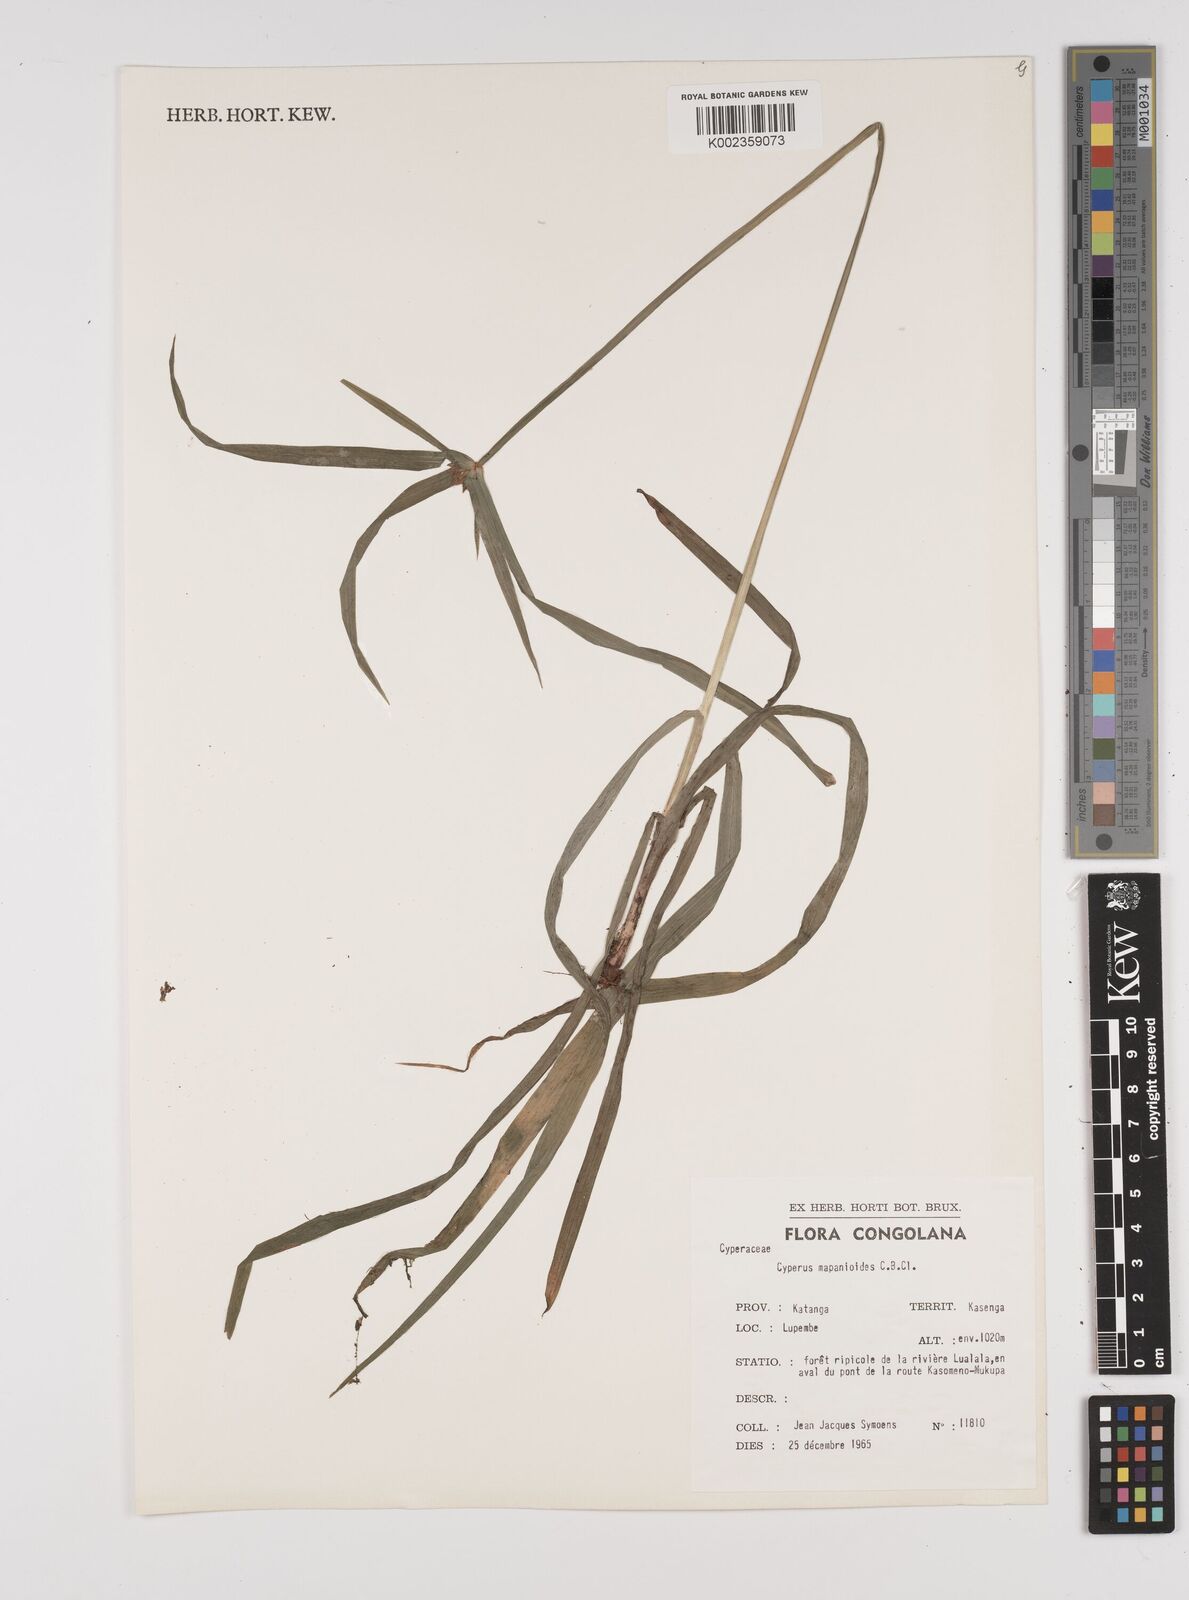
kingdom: Plantae
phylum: Tracheophyta
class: Liliopsida
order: Poales
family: Cyperaceae
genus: Cyperus
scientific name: Cyperus mapanioides
